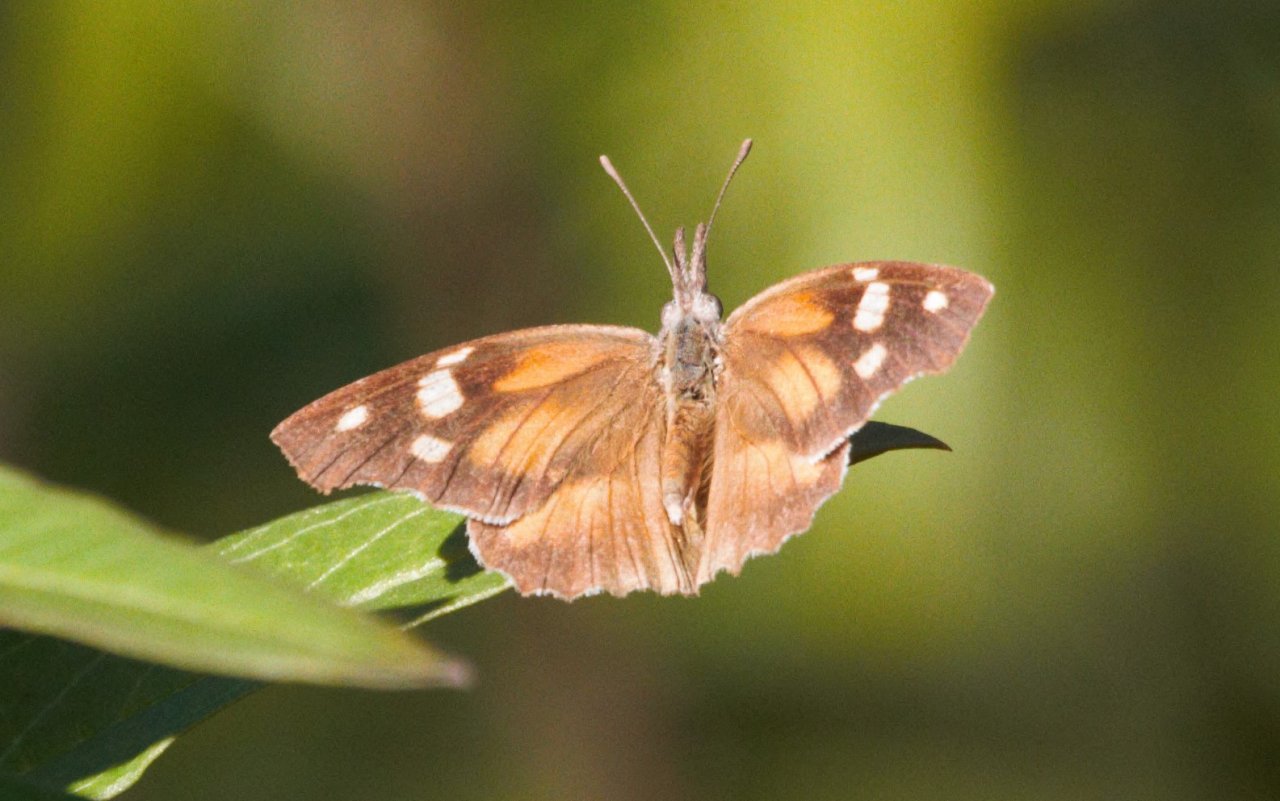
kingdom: Animalia
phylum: Arthropoda
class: Insecta
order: Lepidoptera
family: Nymphalidae
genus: Libytheana
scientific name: Libytheana carinenta
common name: American Snout
